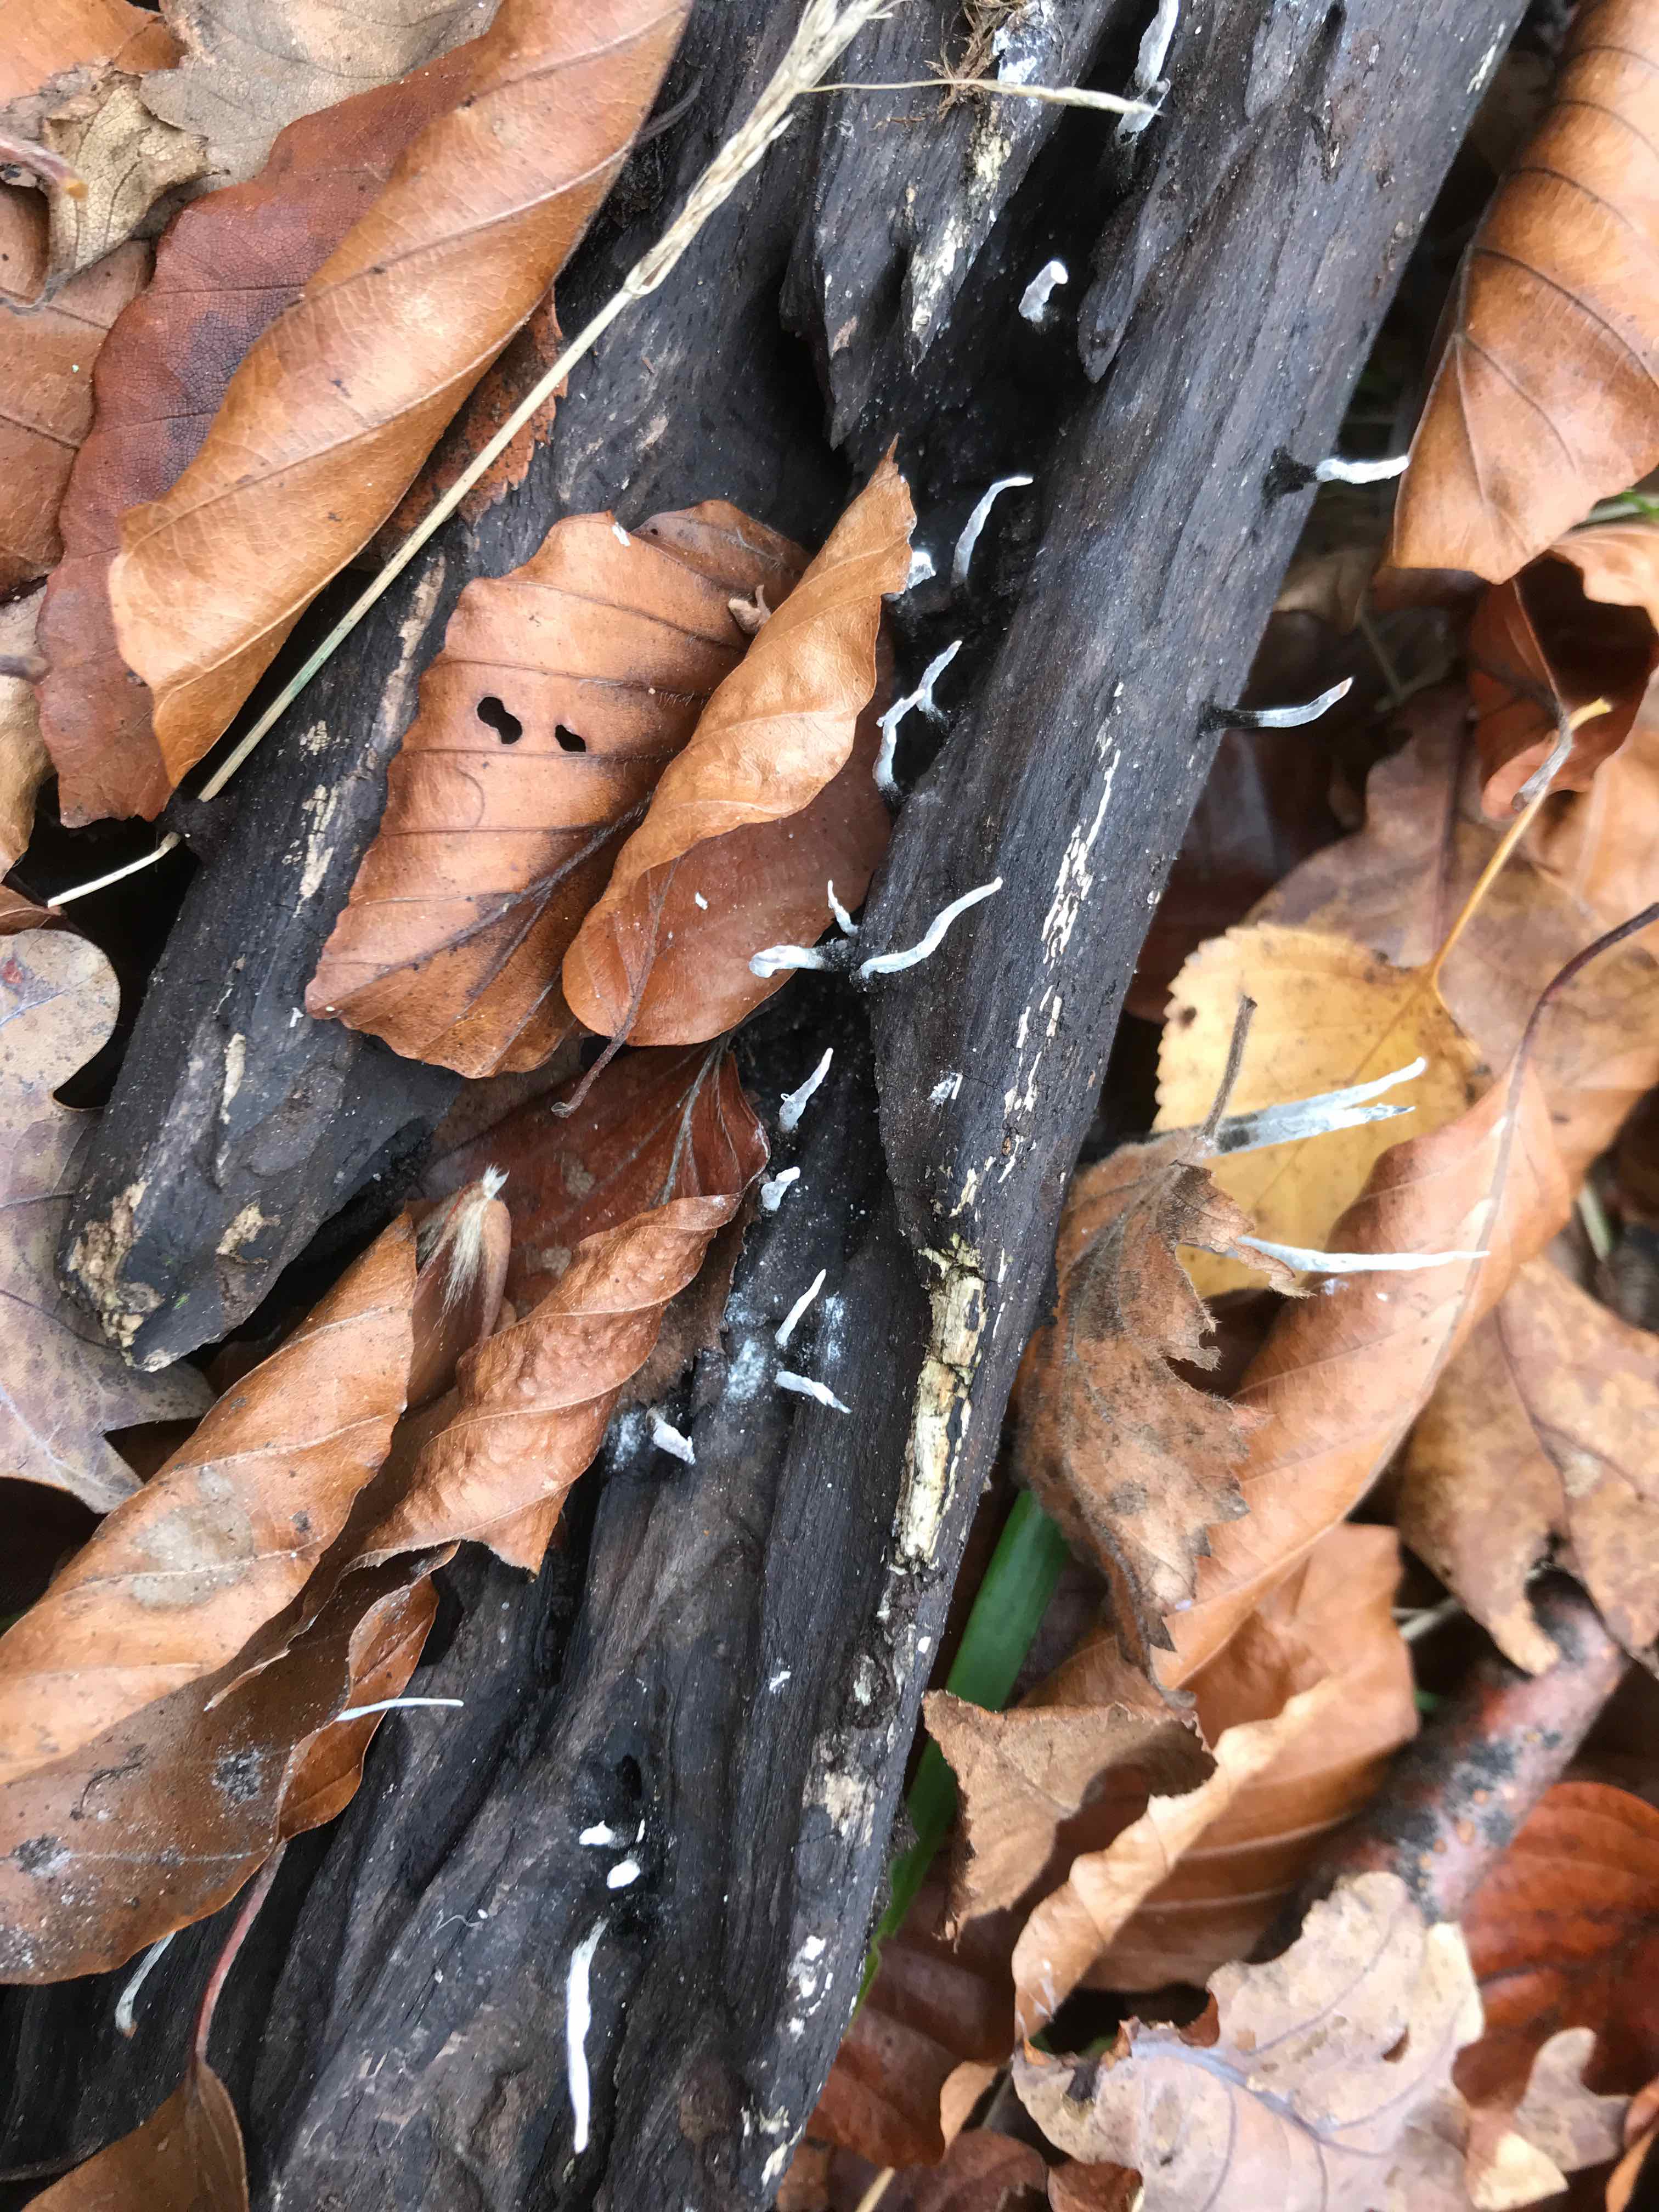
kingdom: Fungi
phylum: Ascomycota
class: Sordariomycetes
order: Xylariales
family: Xylariaceae
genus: Xylaria
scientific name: Xylaria hypoxylon
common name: grenet stødsvamp
